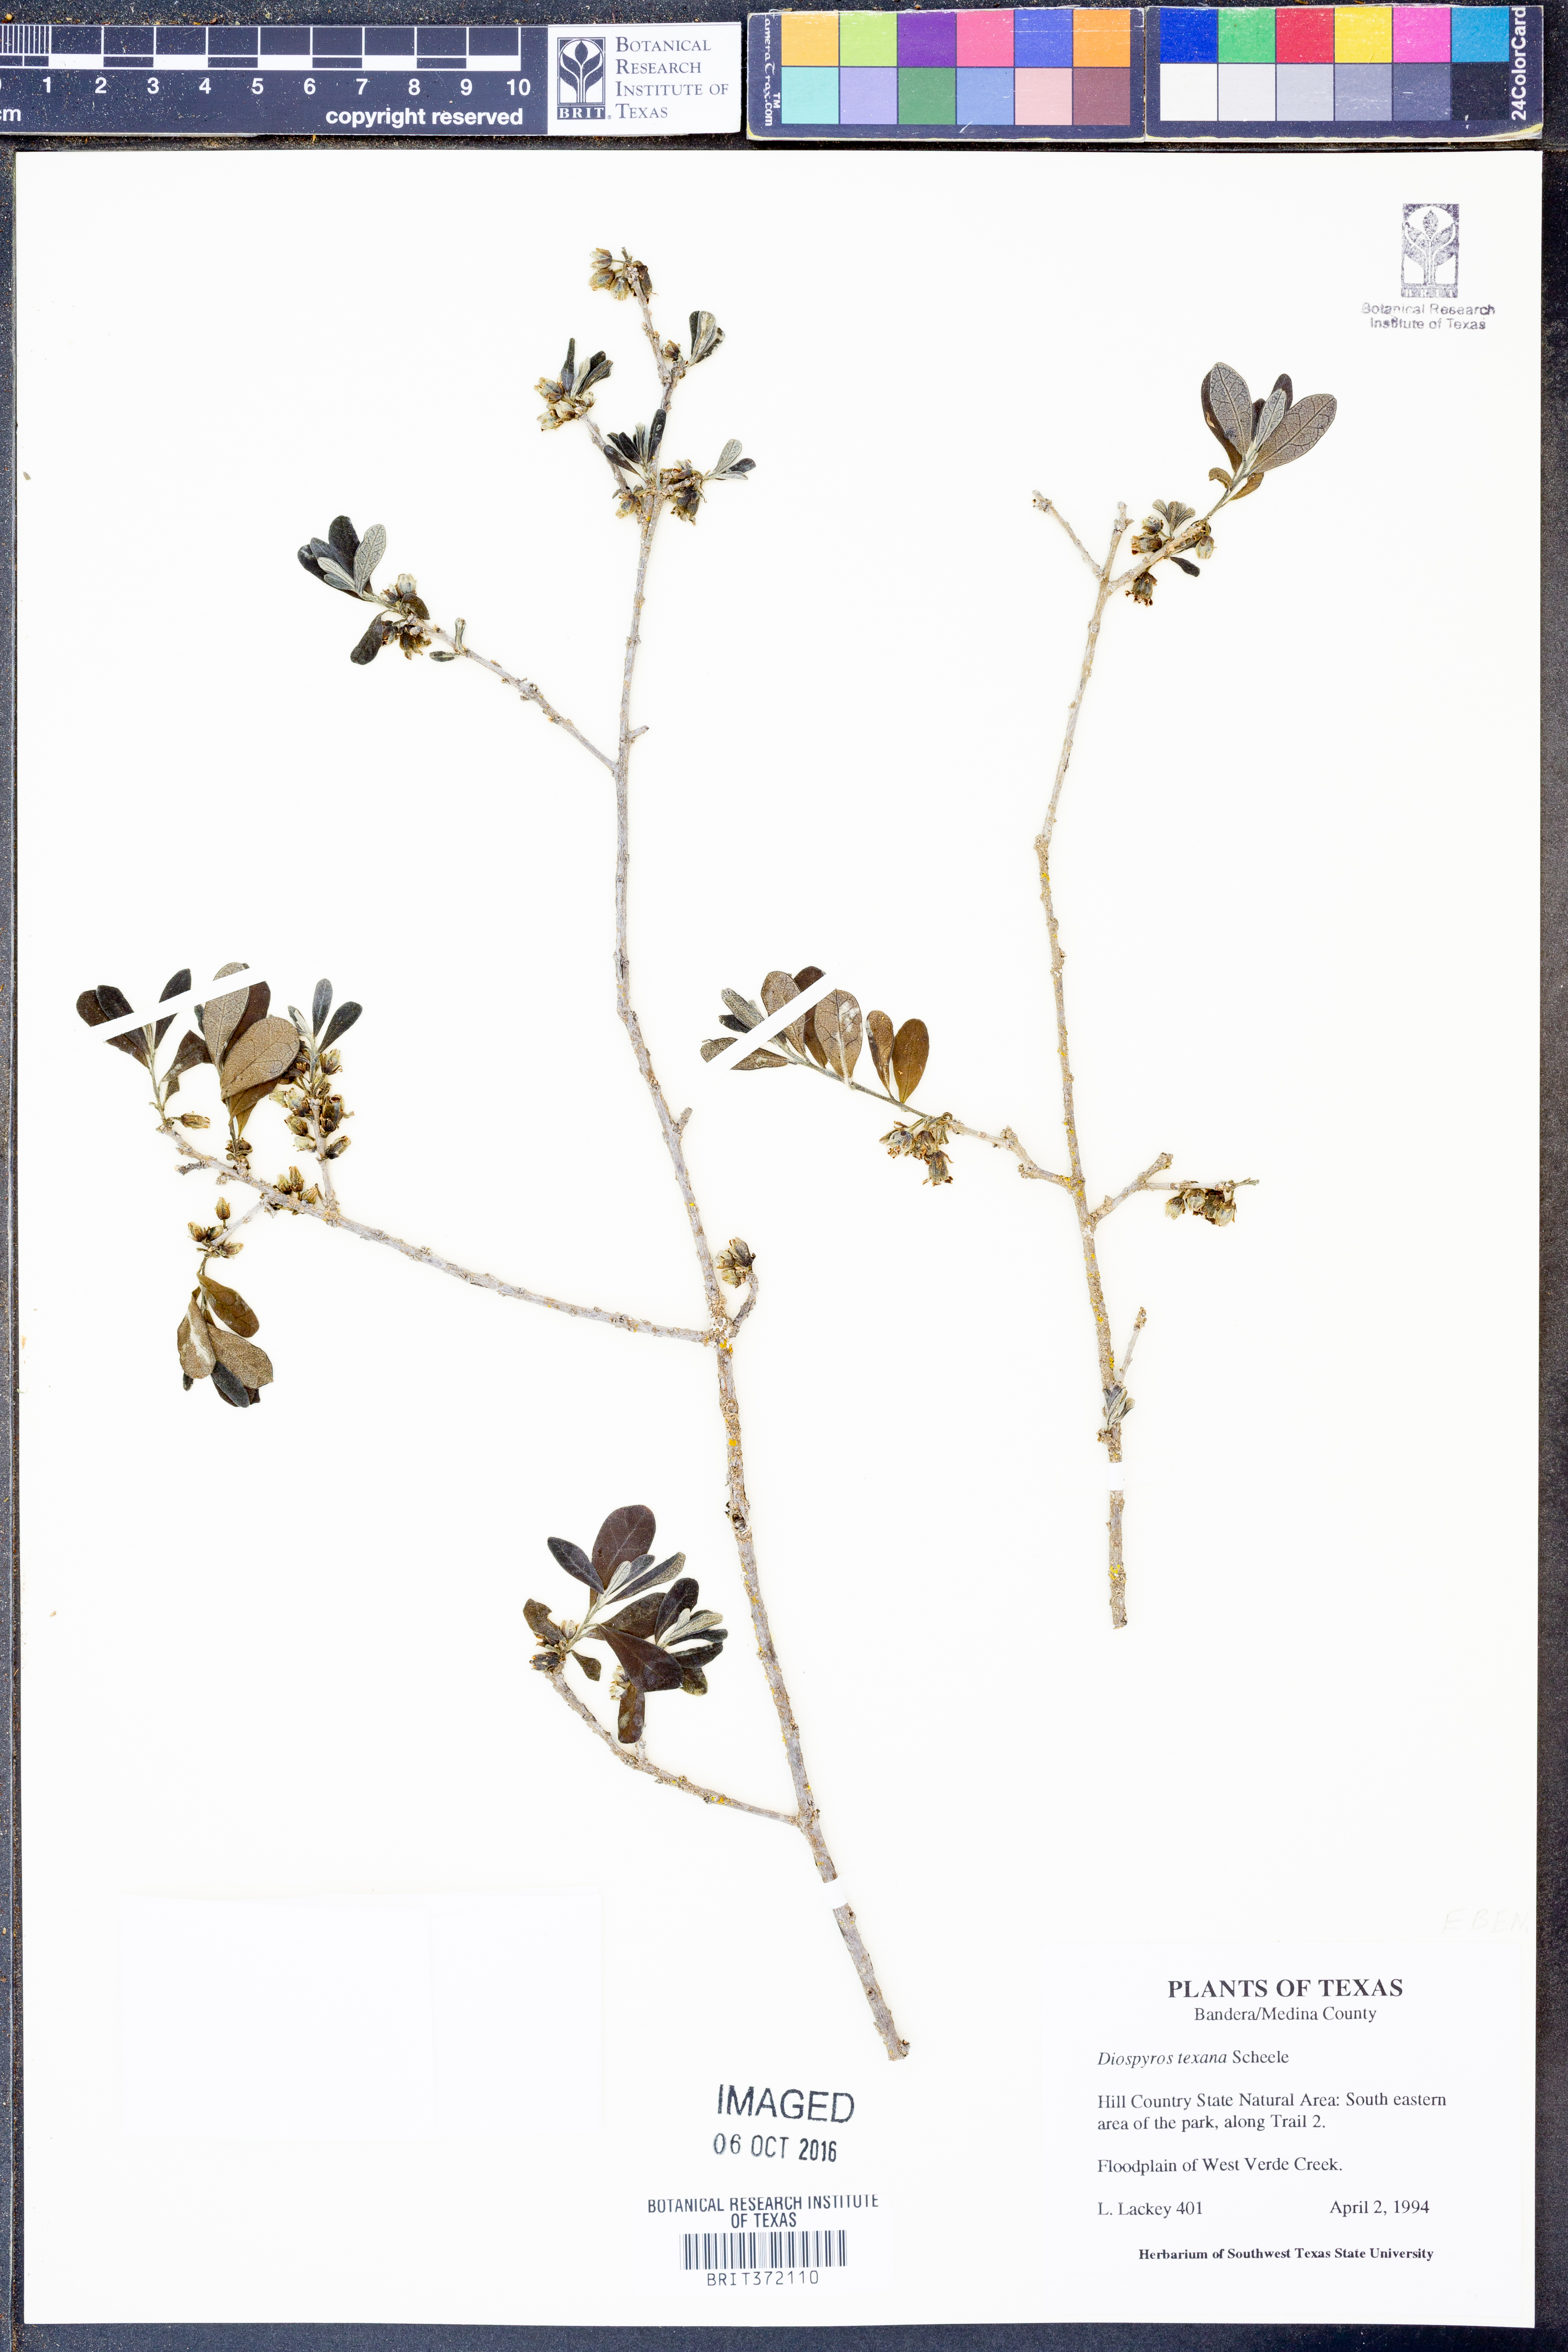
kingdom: Plantae
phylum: Tracheophyta
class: Magnoliopsida
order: Ericales
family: Ebenaceae
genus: Diospyros
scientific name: Diospyros texana
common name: Texas persimmon
